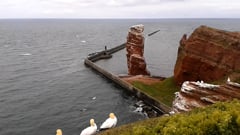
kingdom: Animalia
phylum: Chordata
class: Aves
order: Suliformes
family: Sulidae
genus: Morus
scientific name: Morus bassanus
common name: Northern gannet
